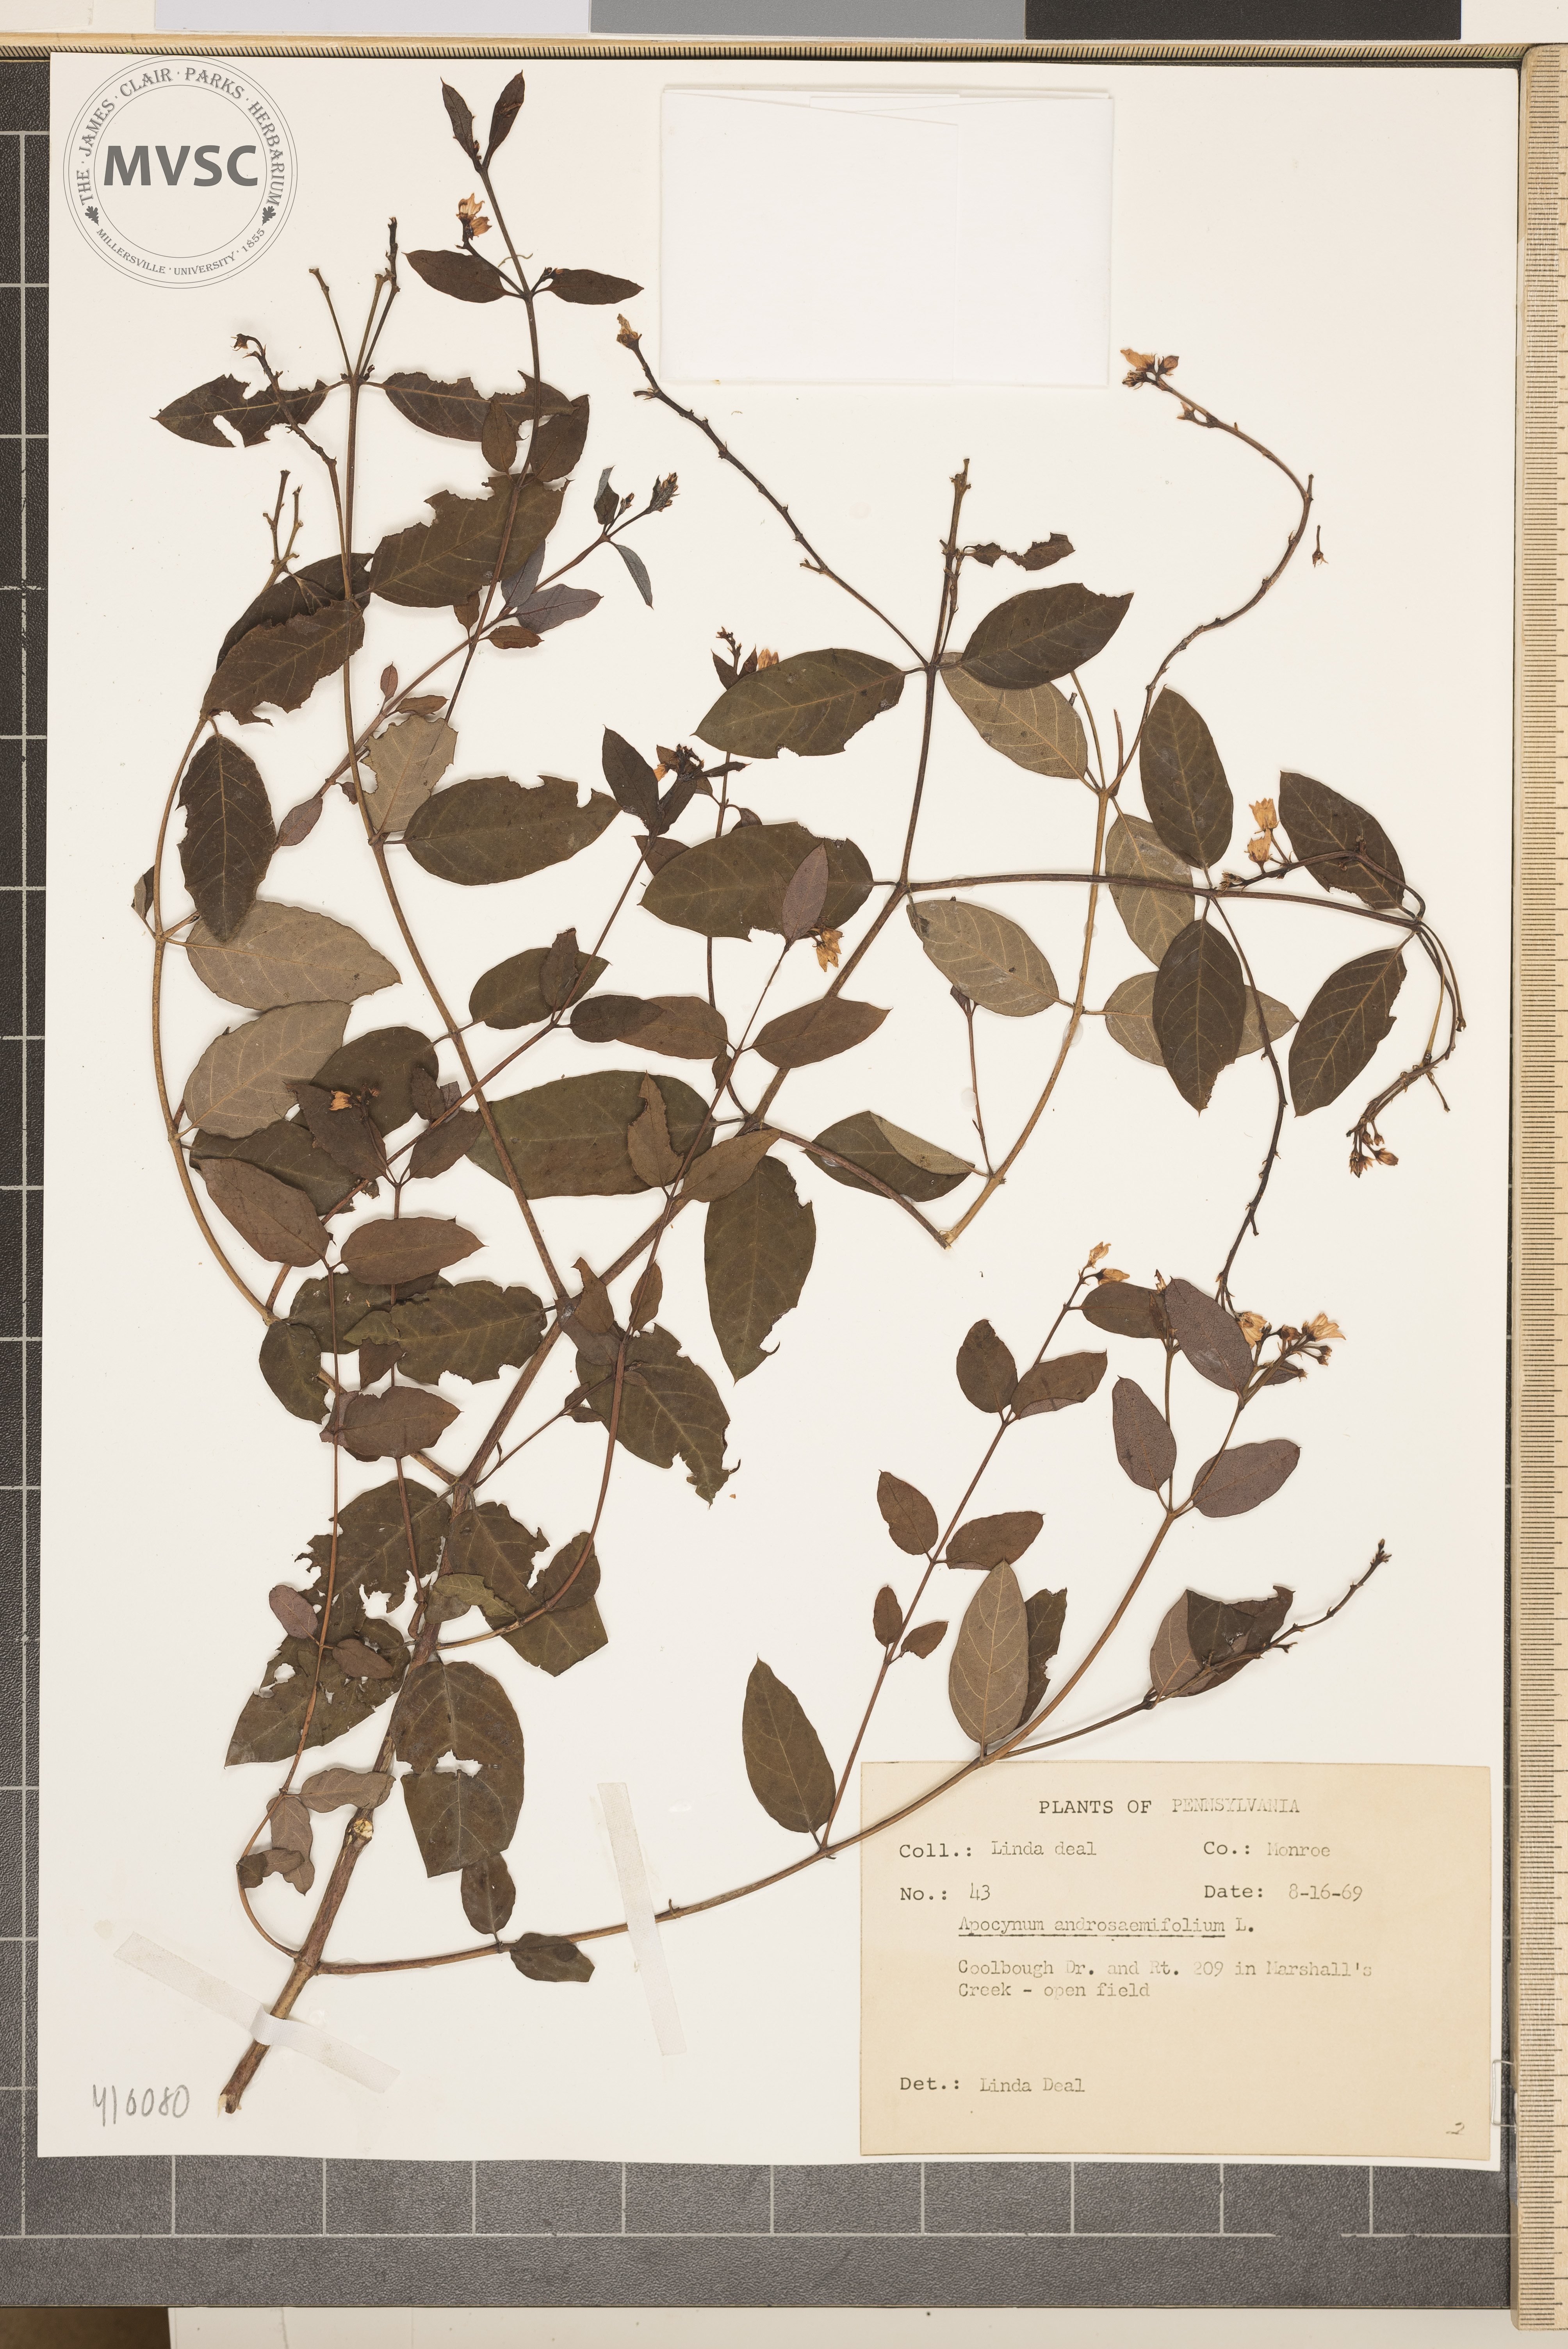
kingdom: Plantae
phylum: Tracheophyta
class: Magnoliopsida
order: Gentianales
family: Apocynaceae
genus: Apocynum
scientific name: Apocynum androsaemifolium
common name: Spreading dogbane
